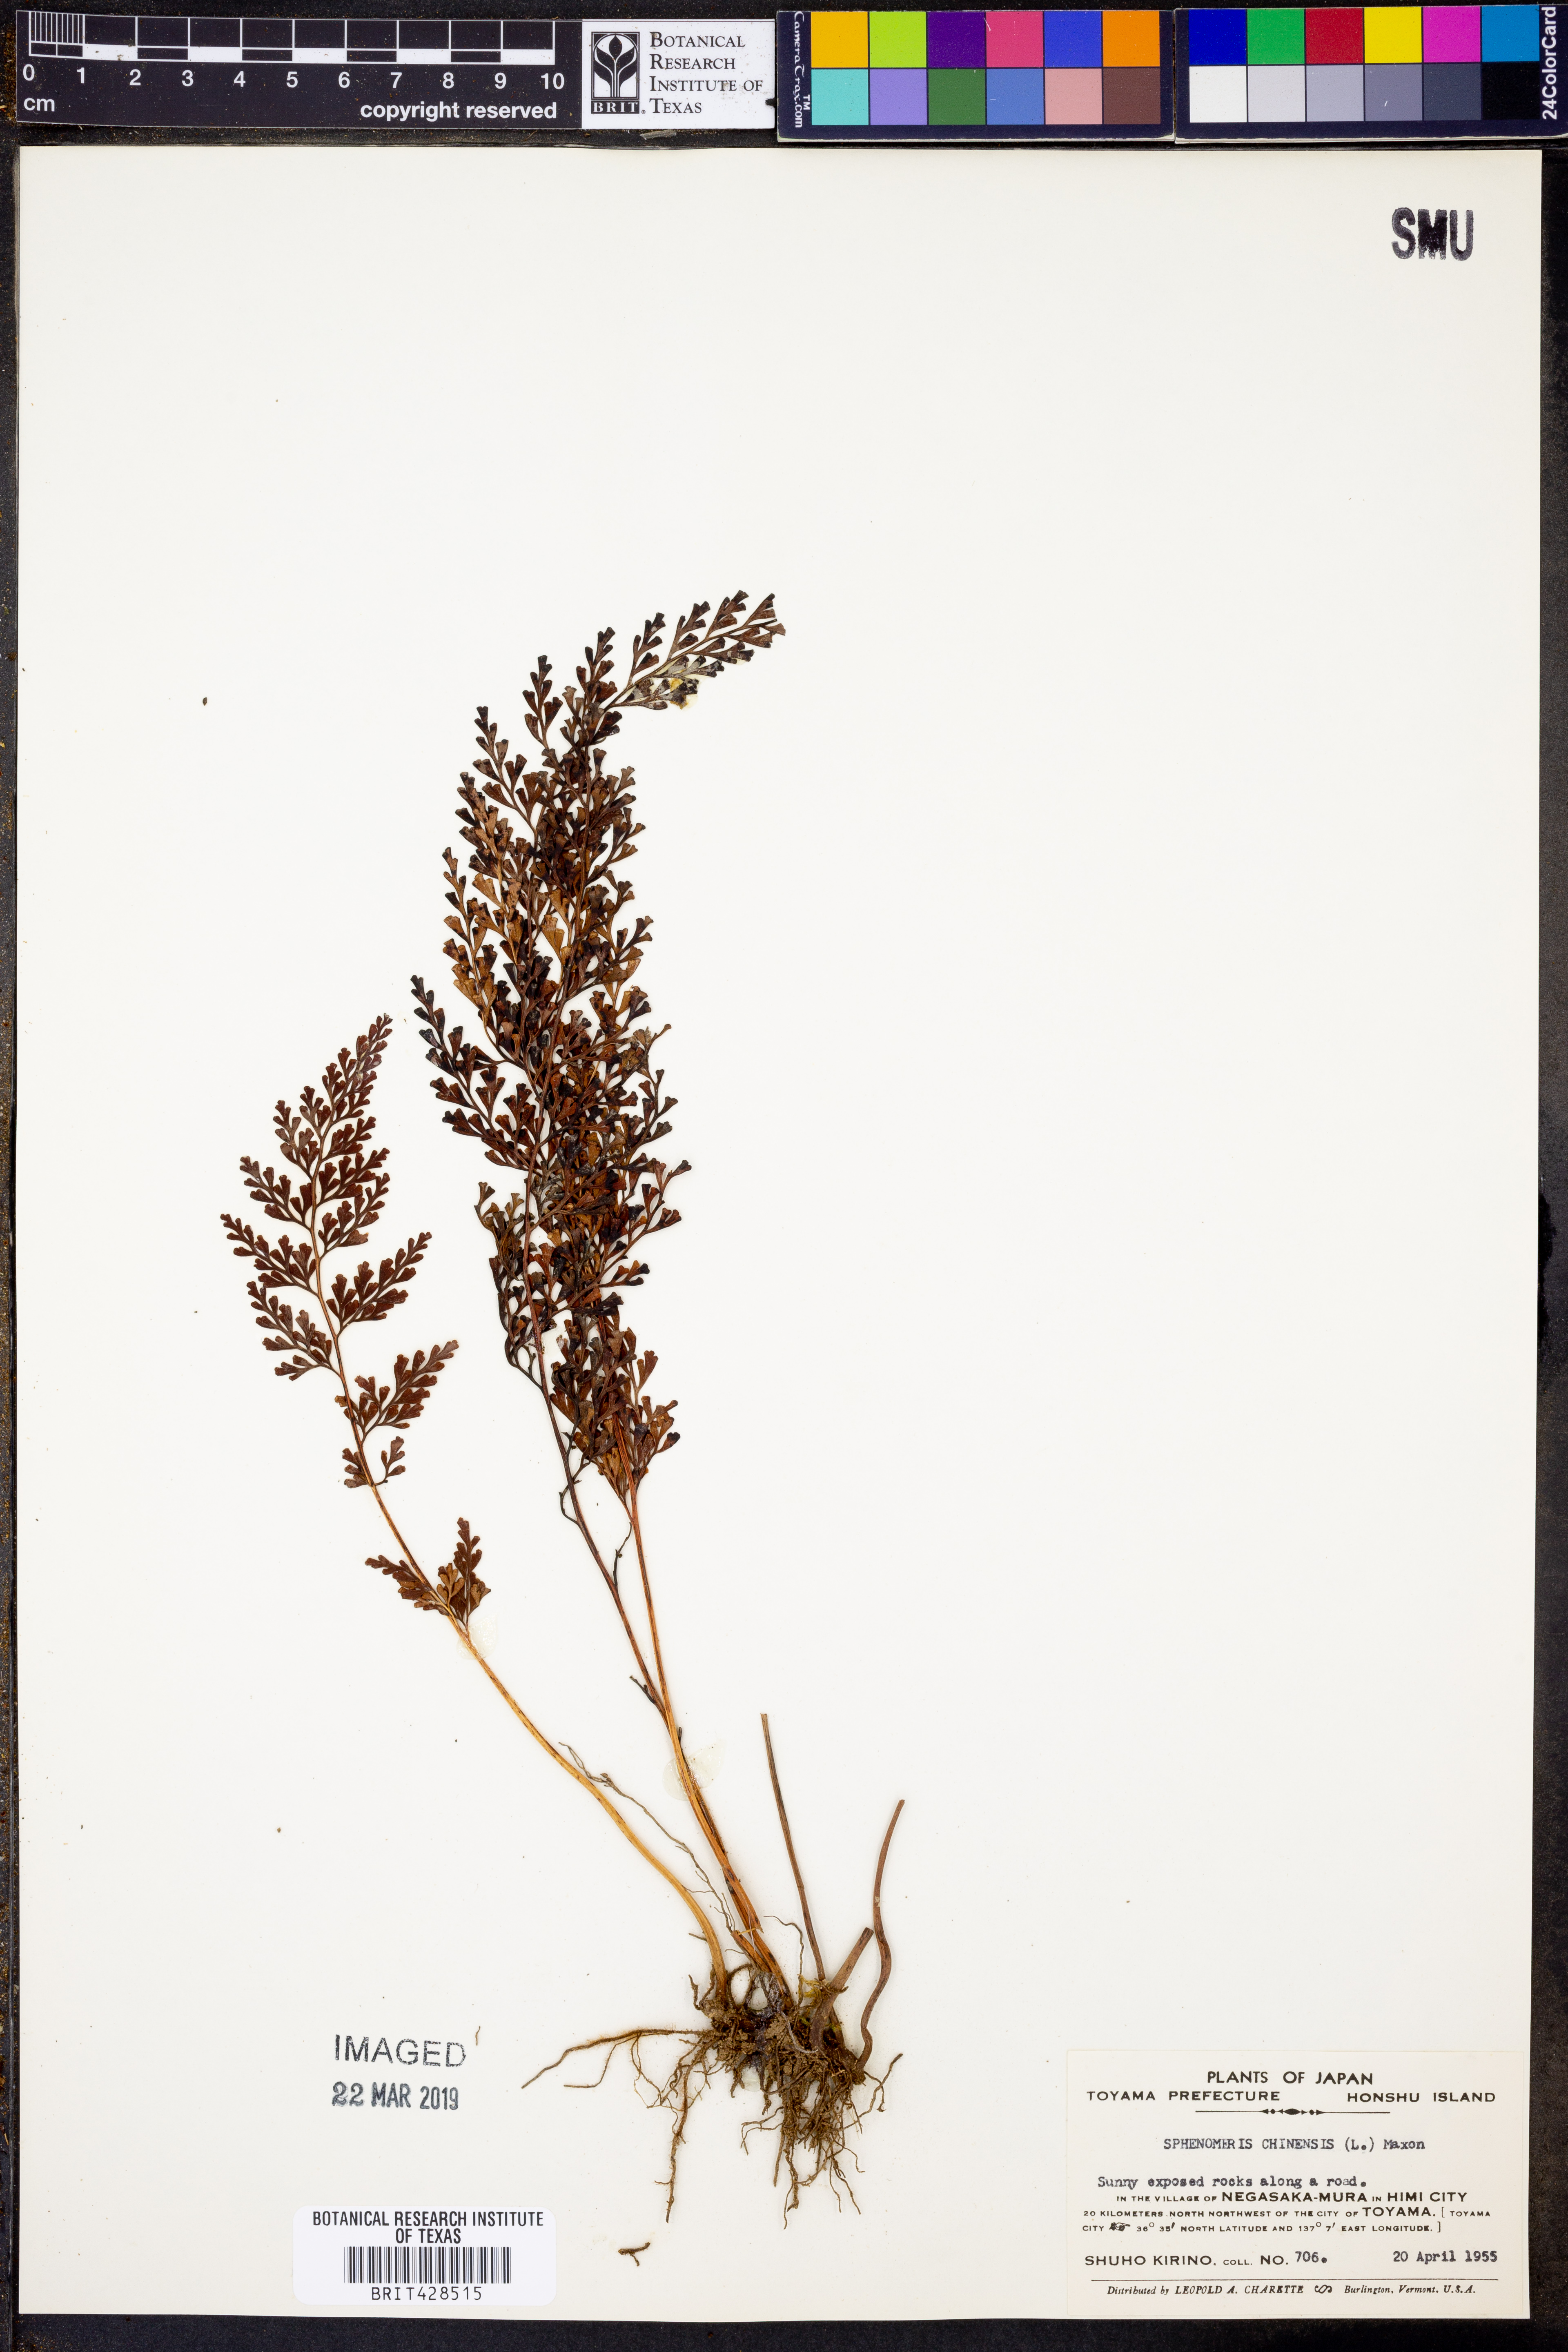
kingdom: Plantae
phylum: Tracheophyta
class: Polypodiopsida
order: Polypodiales
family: Lindsaeaceae
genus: Odontosoria
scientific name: Odontosoria chinensis
